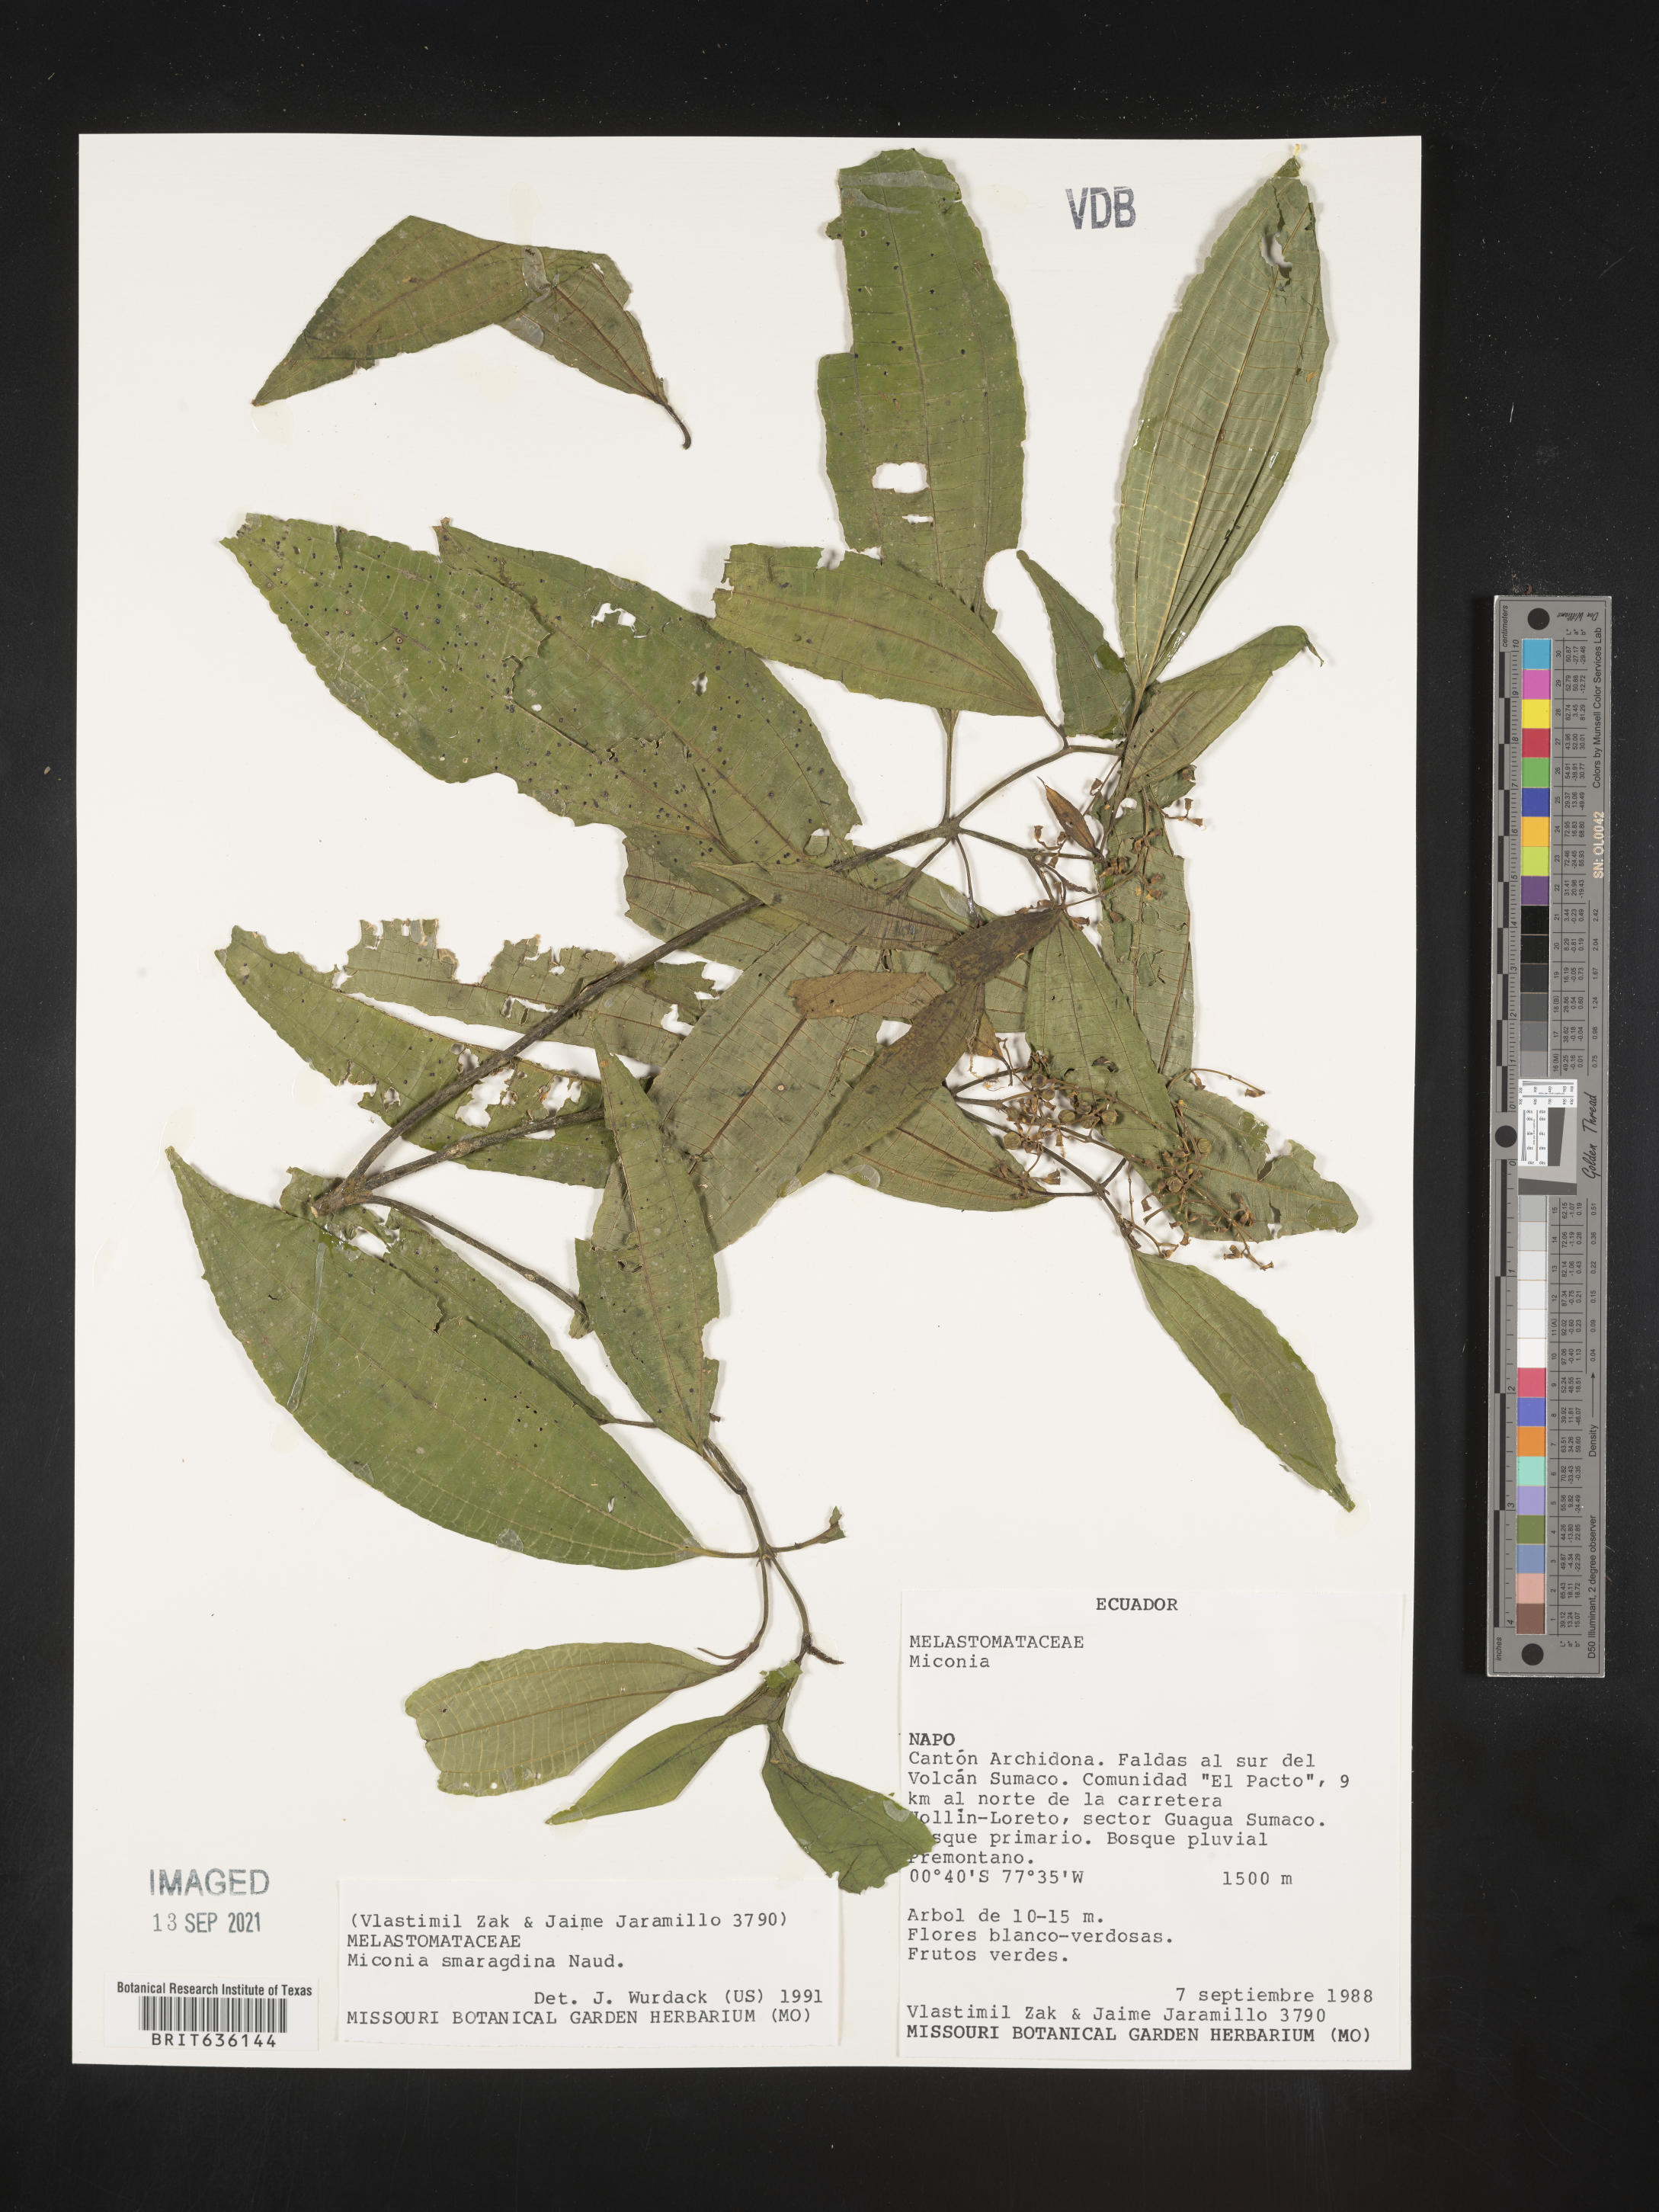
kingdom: Plantae
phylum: Tracheophyta
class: Magnoliopsida
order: Myrtales
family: Melastomataceae
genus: Miconia
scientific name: Miconia
